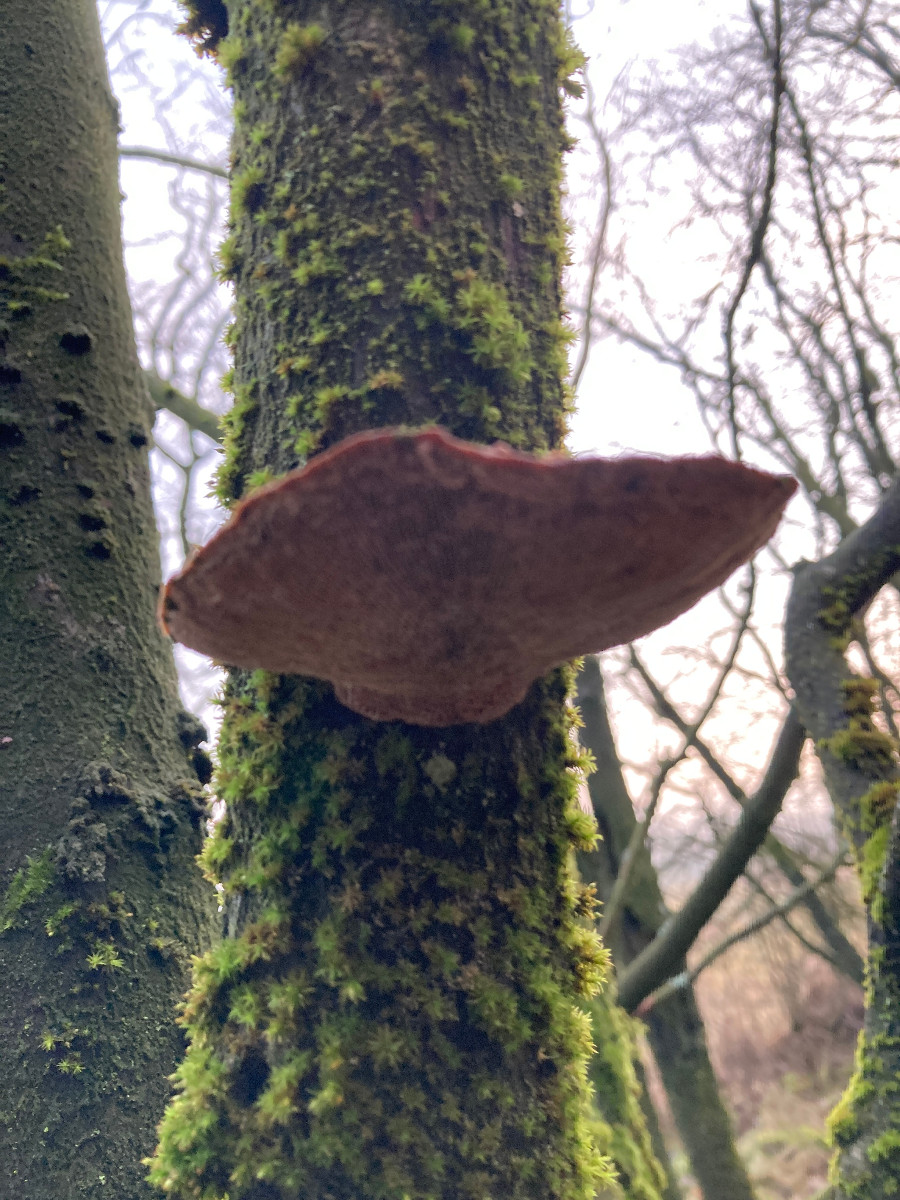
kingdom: Fungi
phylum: Basidiomycota
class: Agaricomycetes
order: Polyporales
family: Polyporaceae
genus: Daedaleopsis
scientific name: Daedaleopsis confragosa
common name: rødmende læderporesvamp
